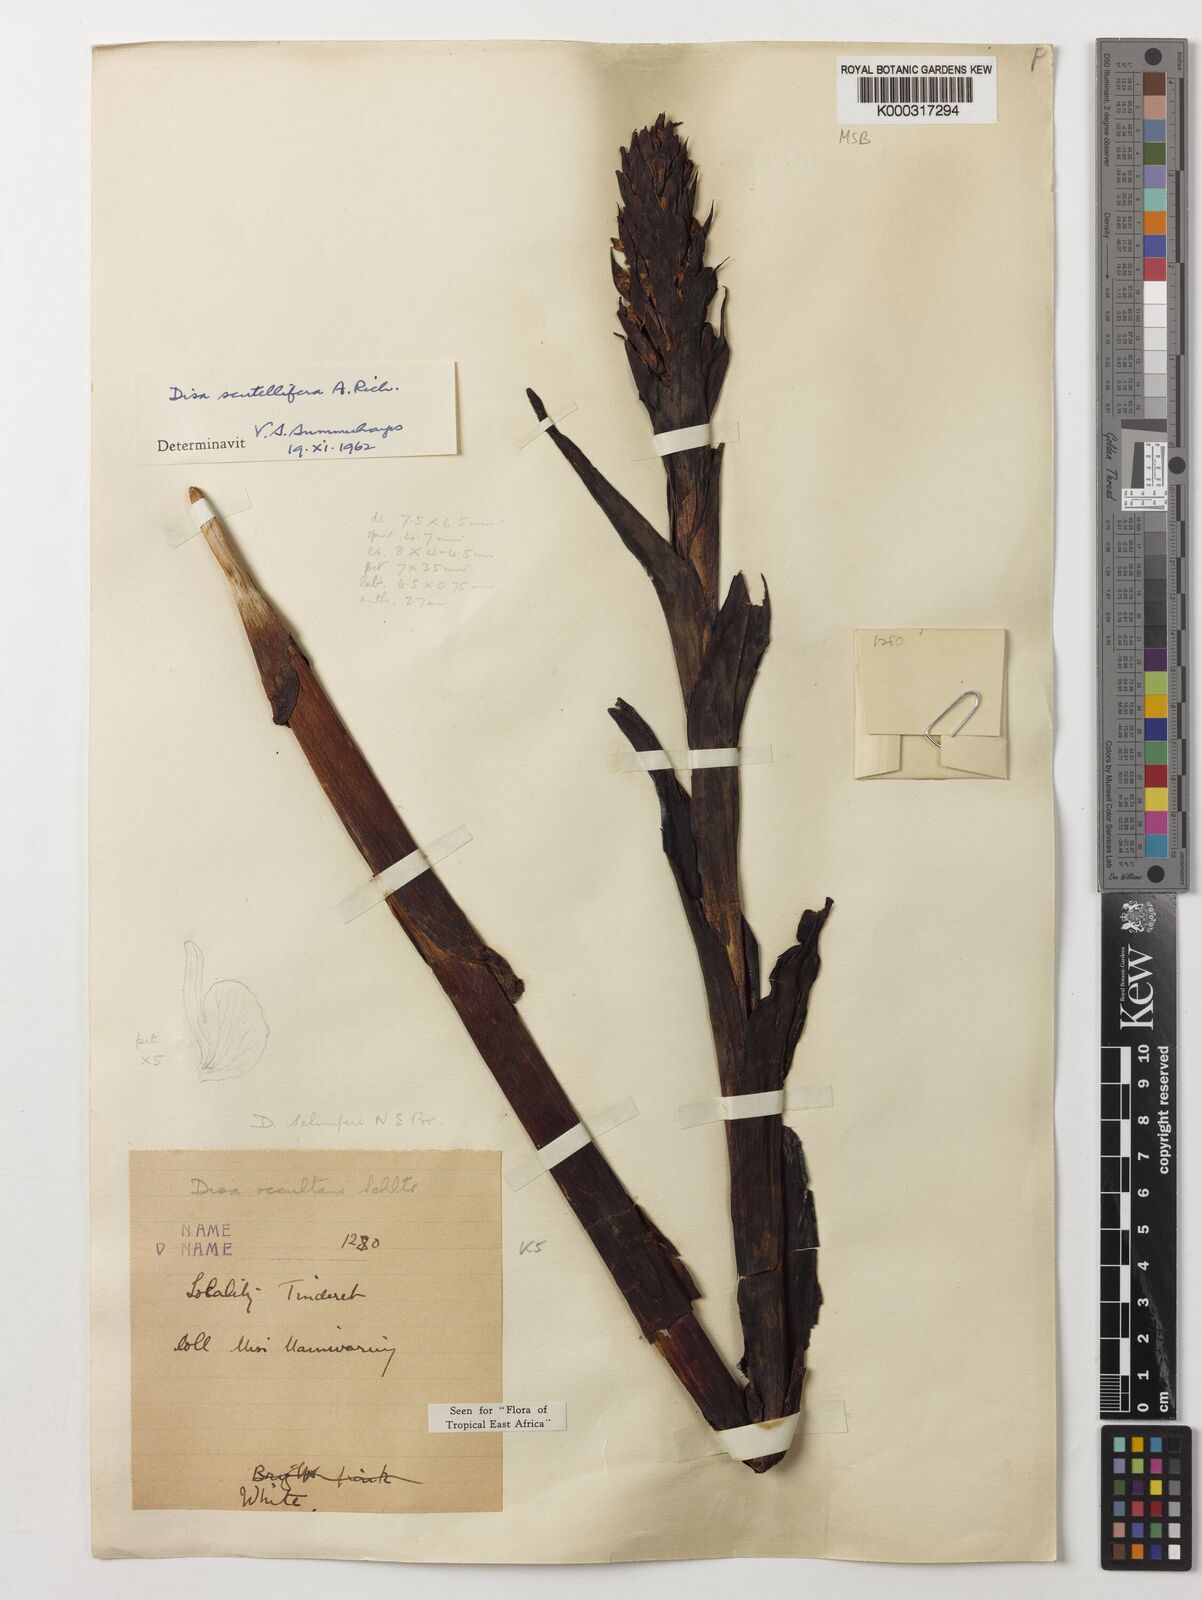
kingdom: Plantae
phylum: Tracheophyta
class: Liliopsida
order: Asparagales
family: Orchidaceae
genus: Disa
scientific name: Disa scutellifera
